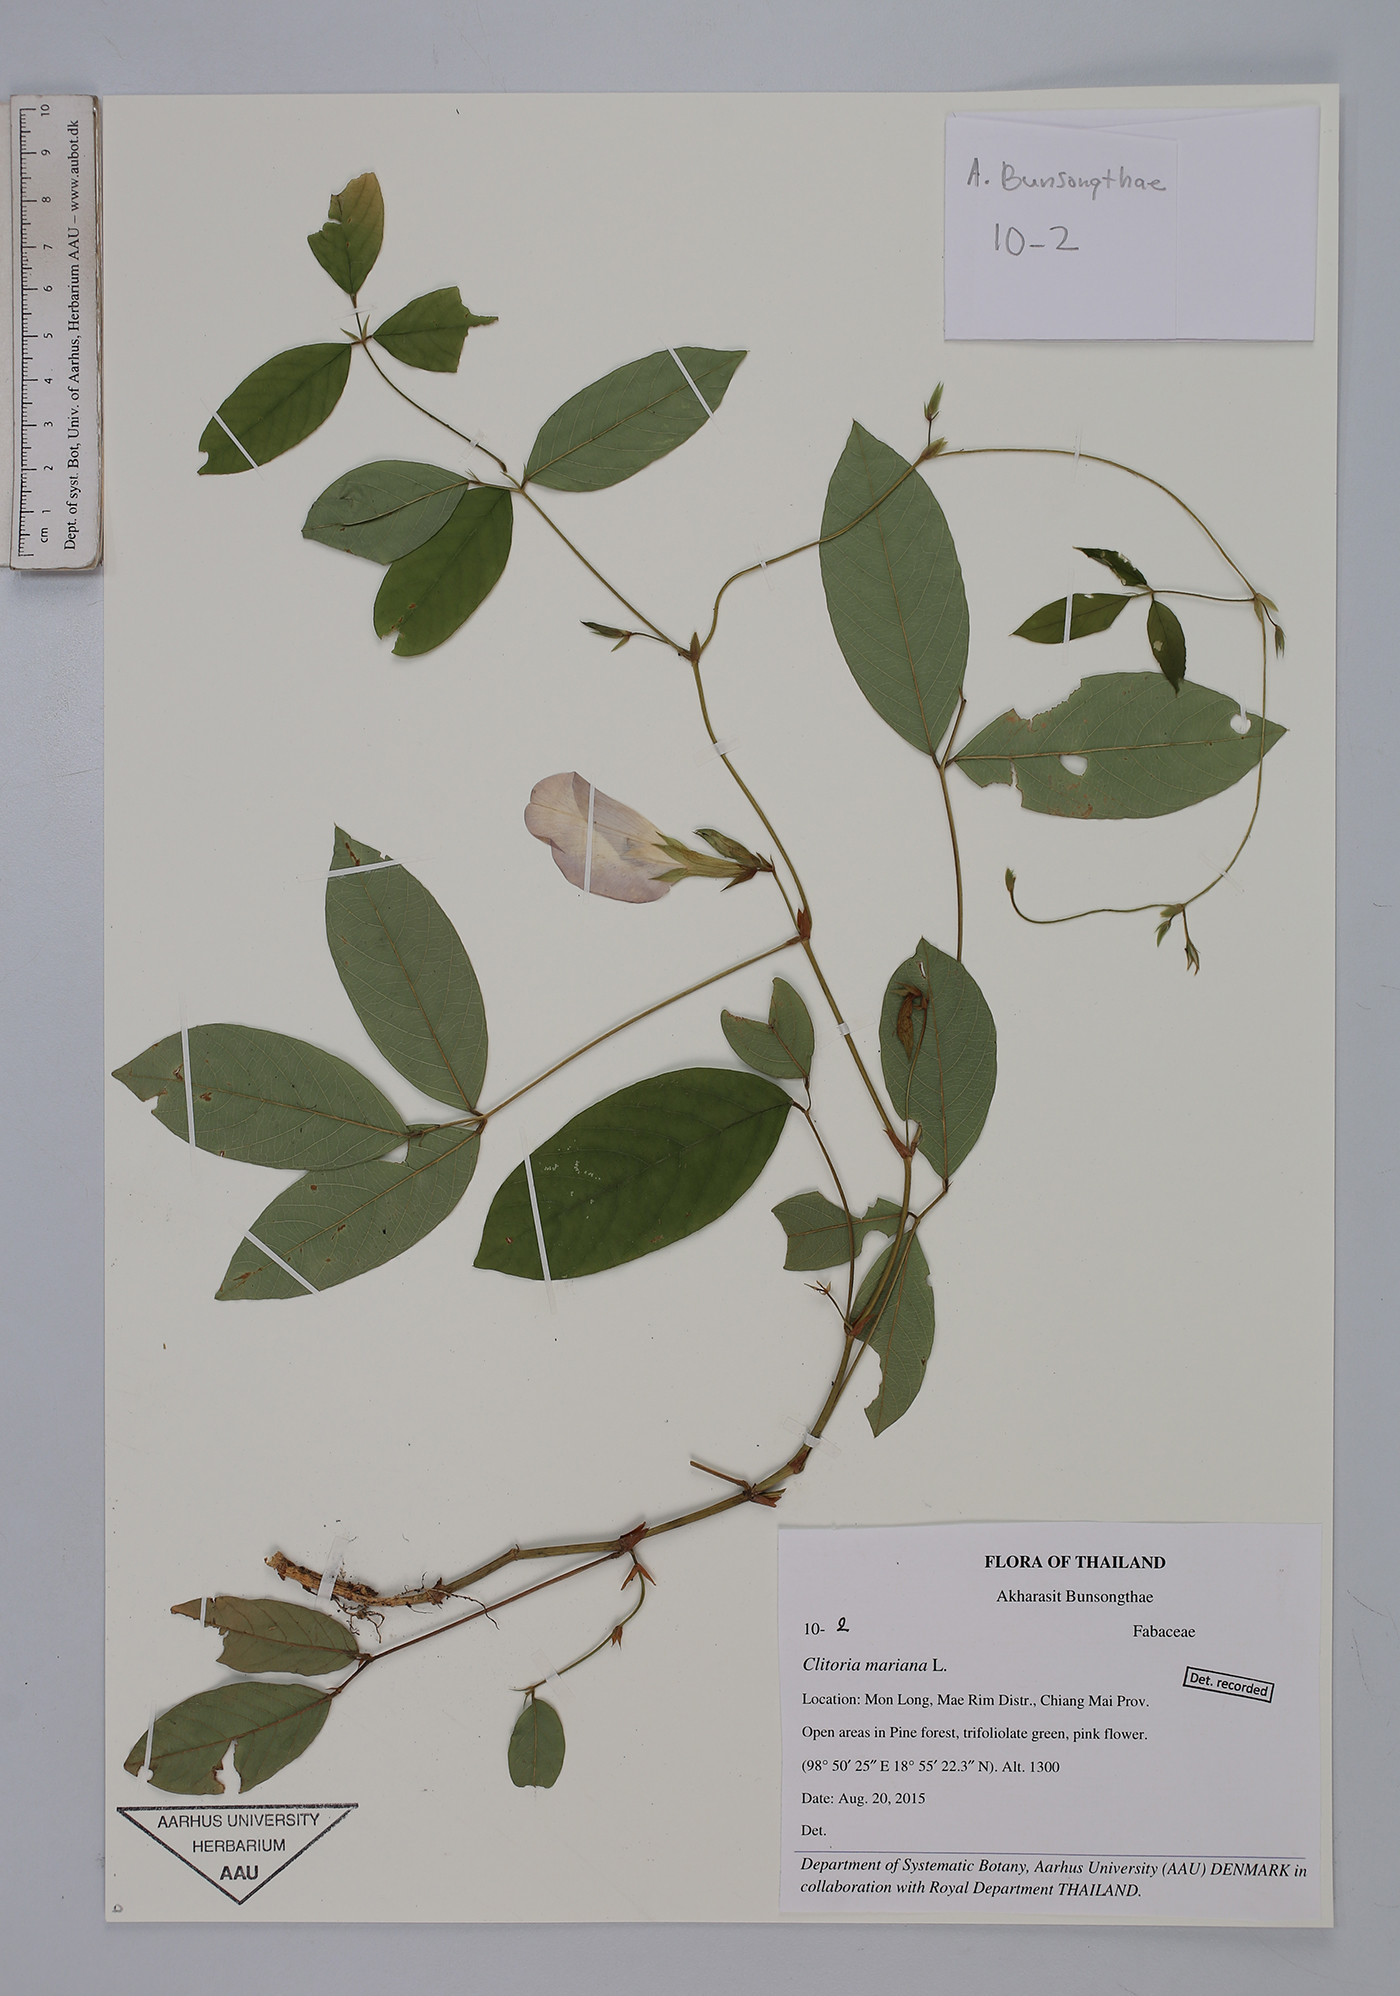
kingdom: Plantae
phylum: Tracheophyta
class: Magnoliopsida
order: Fabales
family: Fabaceae
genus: Clitoria
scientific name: Clitoria mariana
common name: Butterfly-pea
